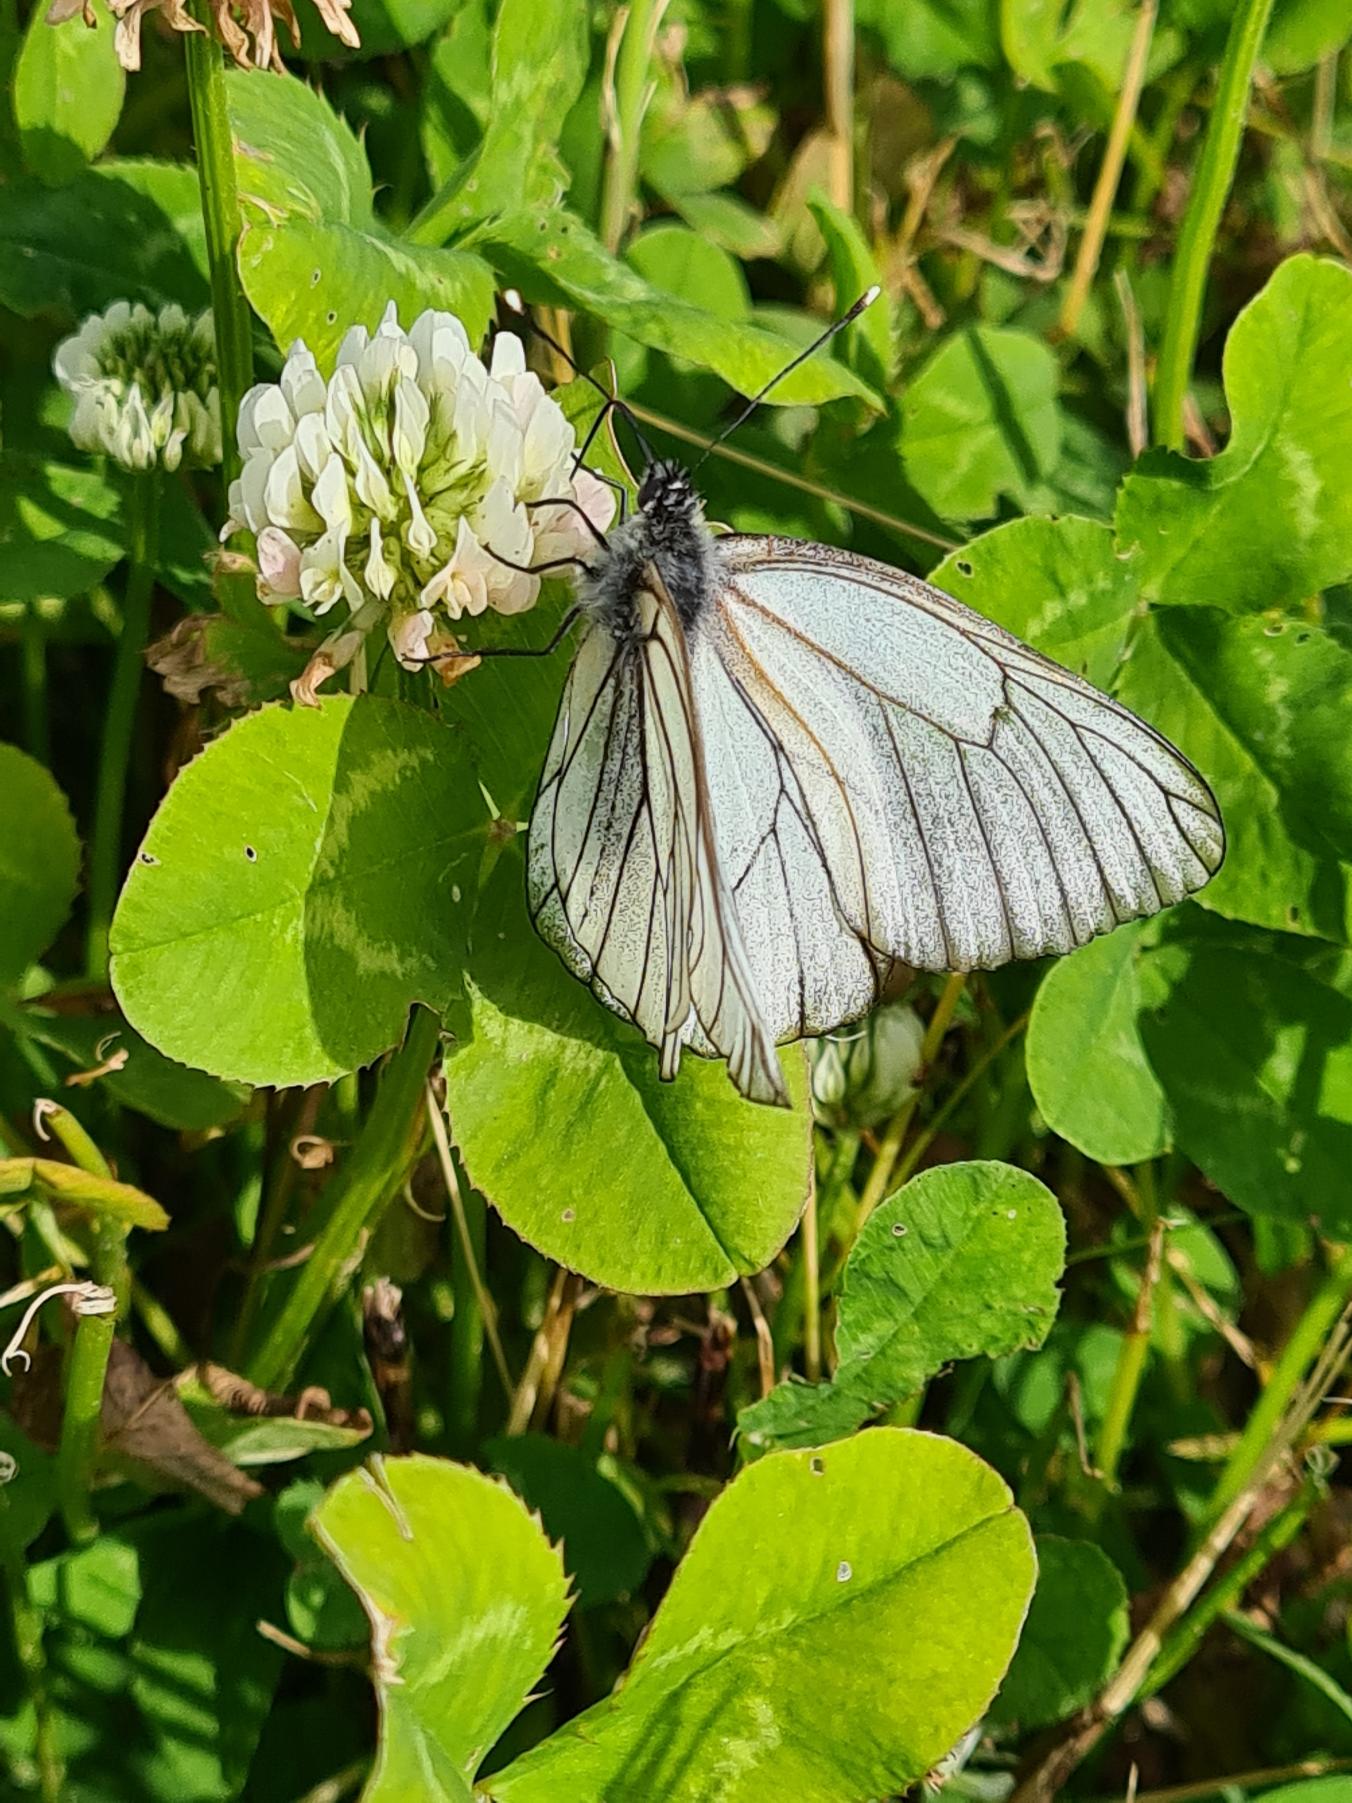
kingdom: Animalia
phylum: Arthropoda
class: Insecta
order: Lepidoptera
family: Pieridae
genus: Aporia
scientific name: Aporia crataegi
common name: Sortåret hvidvinge
